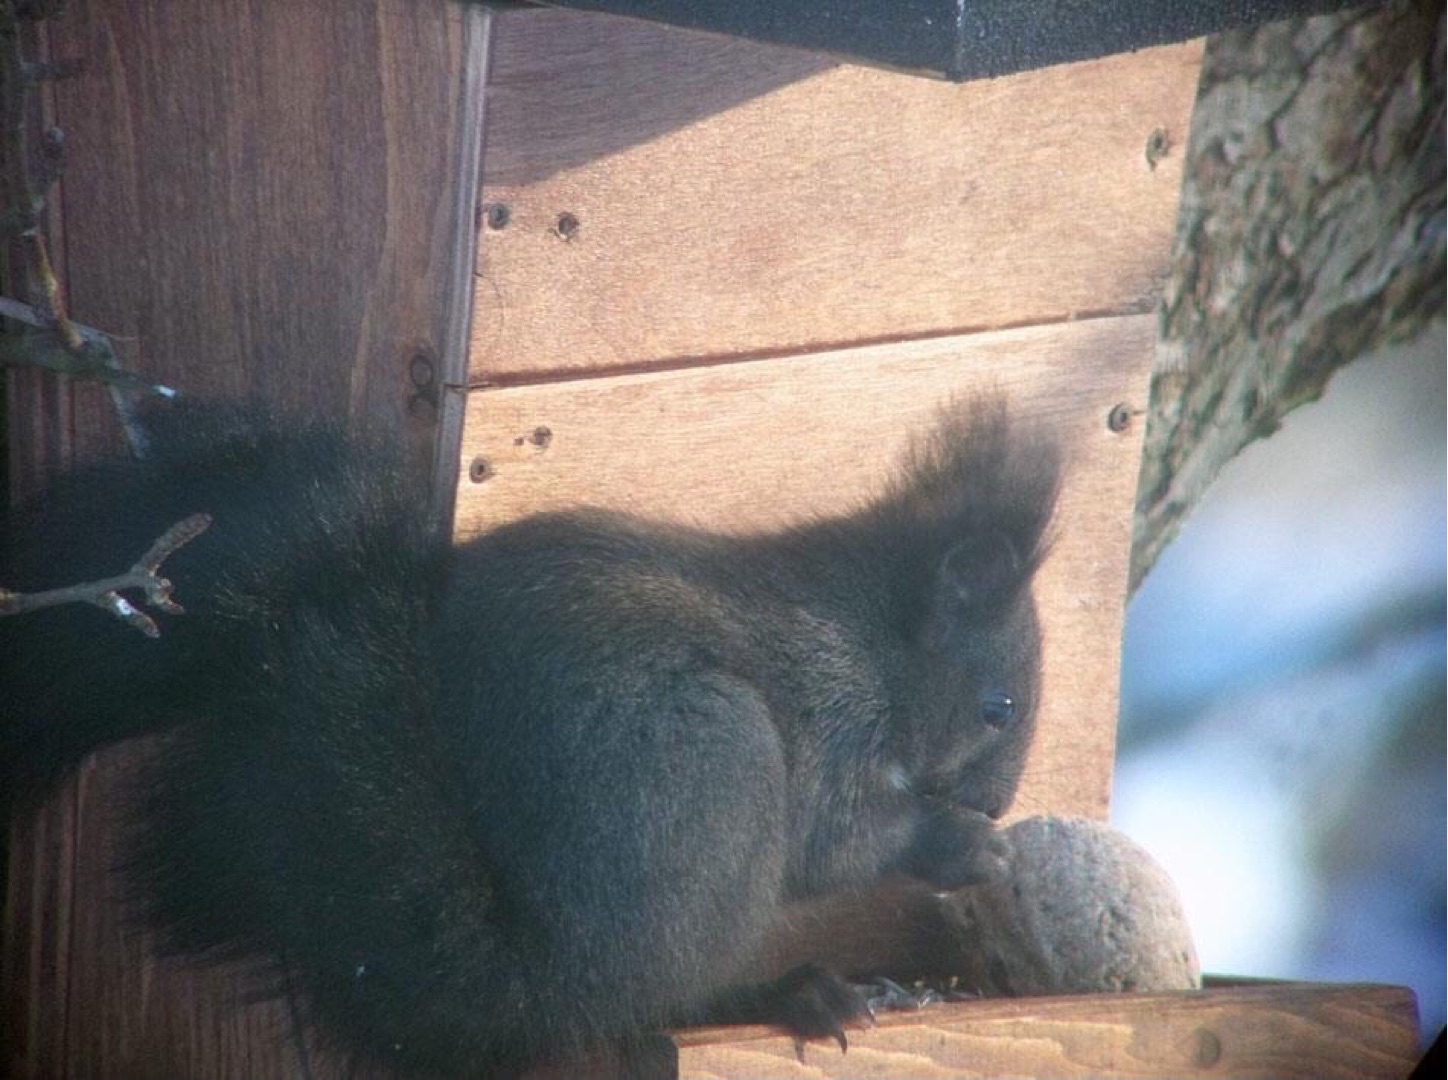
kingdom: Animalia
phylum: Chordata
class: Mammalia
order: Rodentia
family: Sciuridae
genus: Sciurus
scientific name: Sciurus vulgaris
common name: Egern
